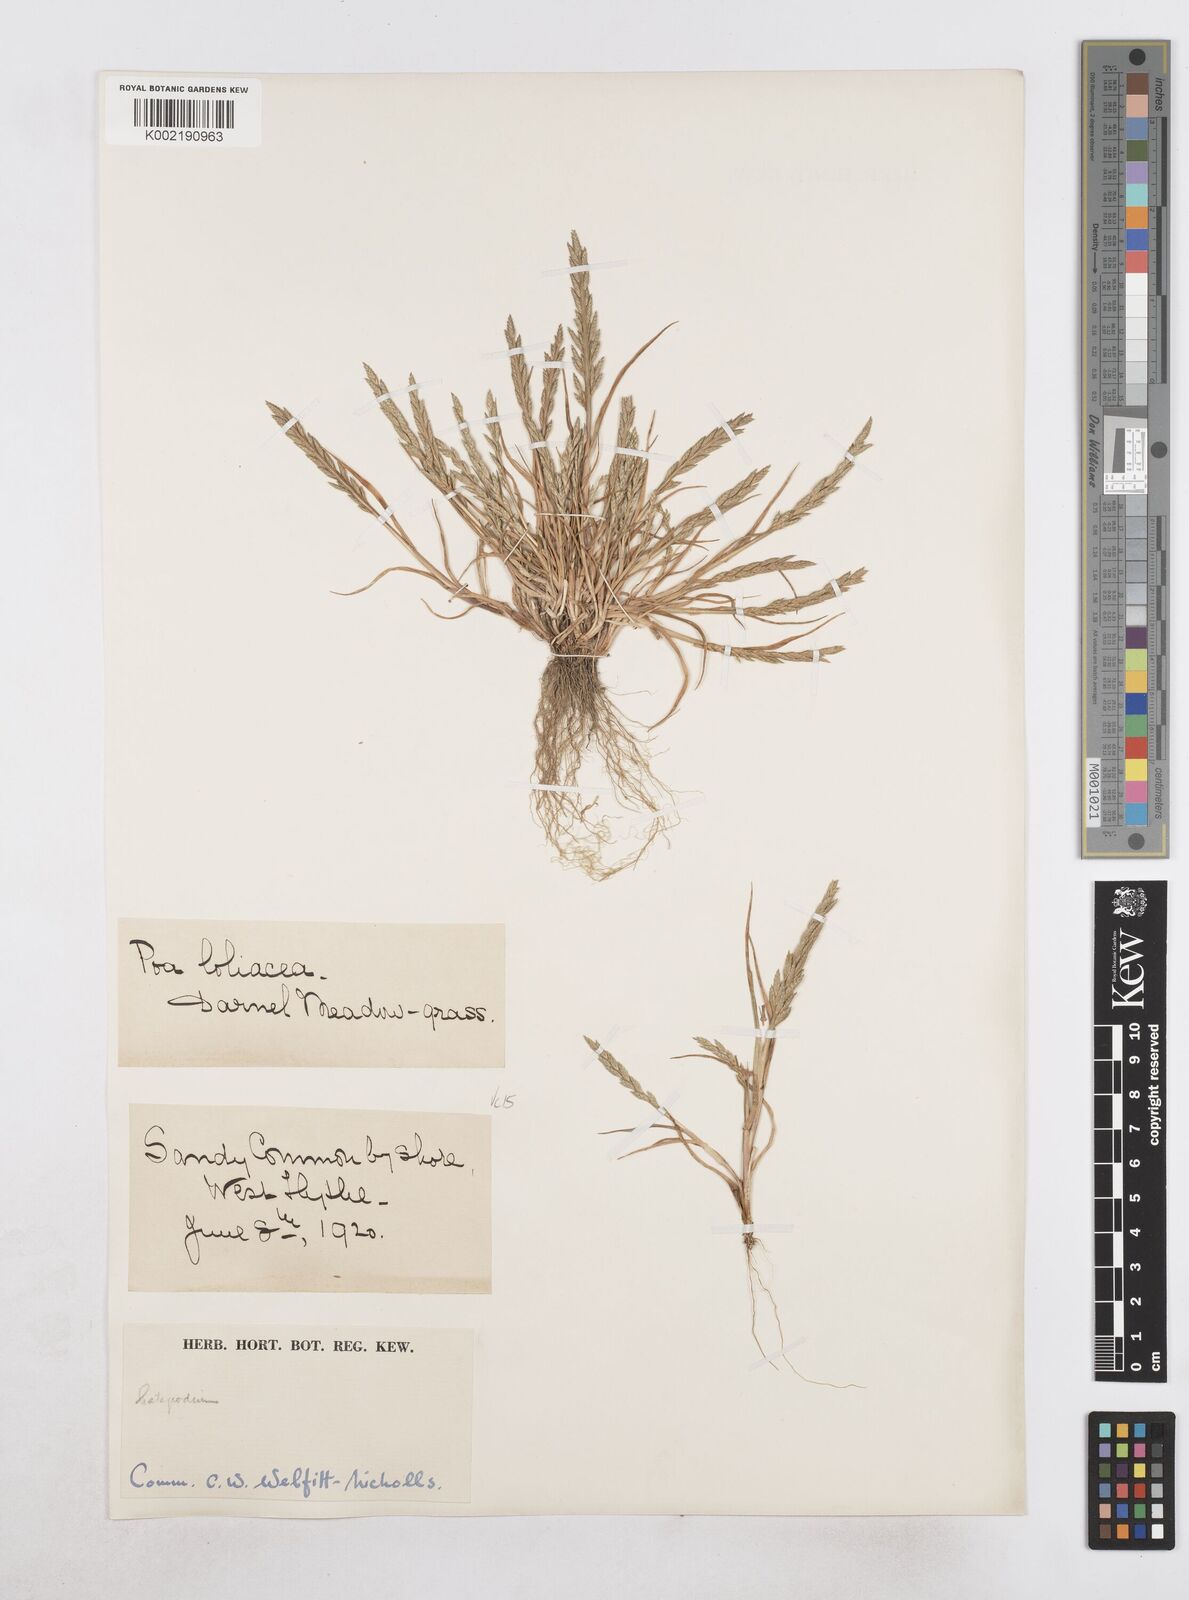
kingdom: Plantae
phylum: Tracheophyta
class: Liliopsida
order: Poales
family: Poaceae
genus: Catapodium
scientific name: Catapodium marinum
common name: Sea fern-grass
